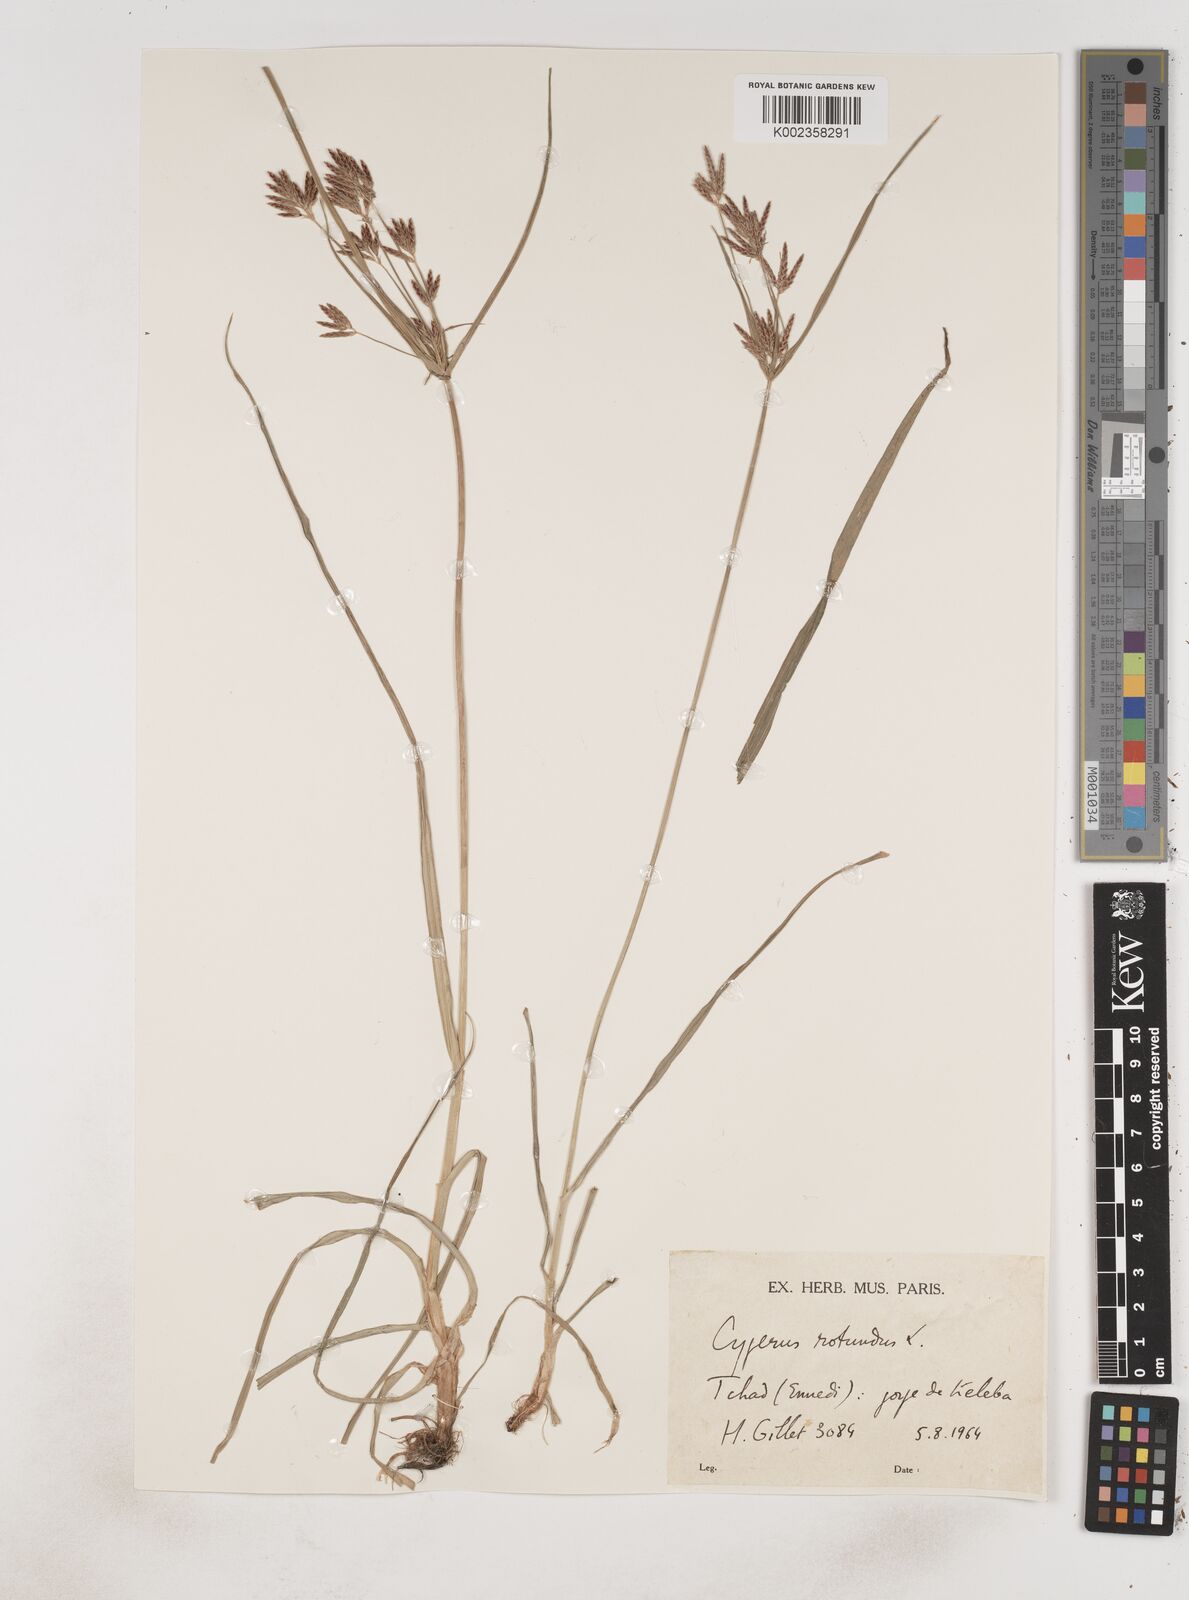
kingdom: Plantae
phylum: Tracheophyta
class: Liliopsida
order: Poales
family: Cyperaceae
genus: Cyperus
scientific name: Cyperus rotundus
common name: Nutgrass
